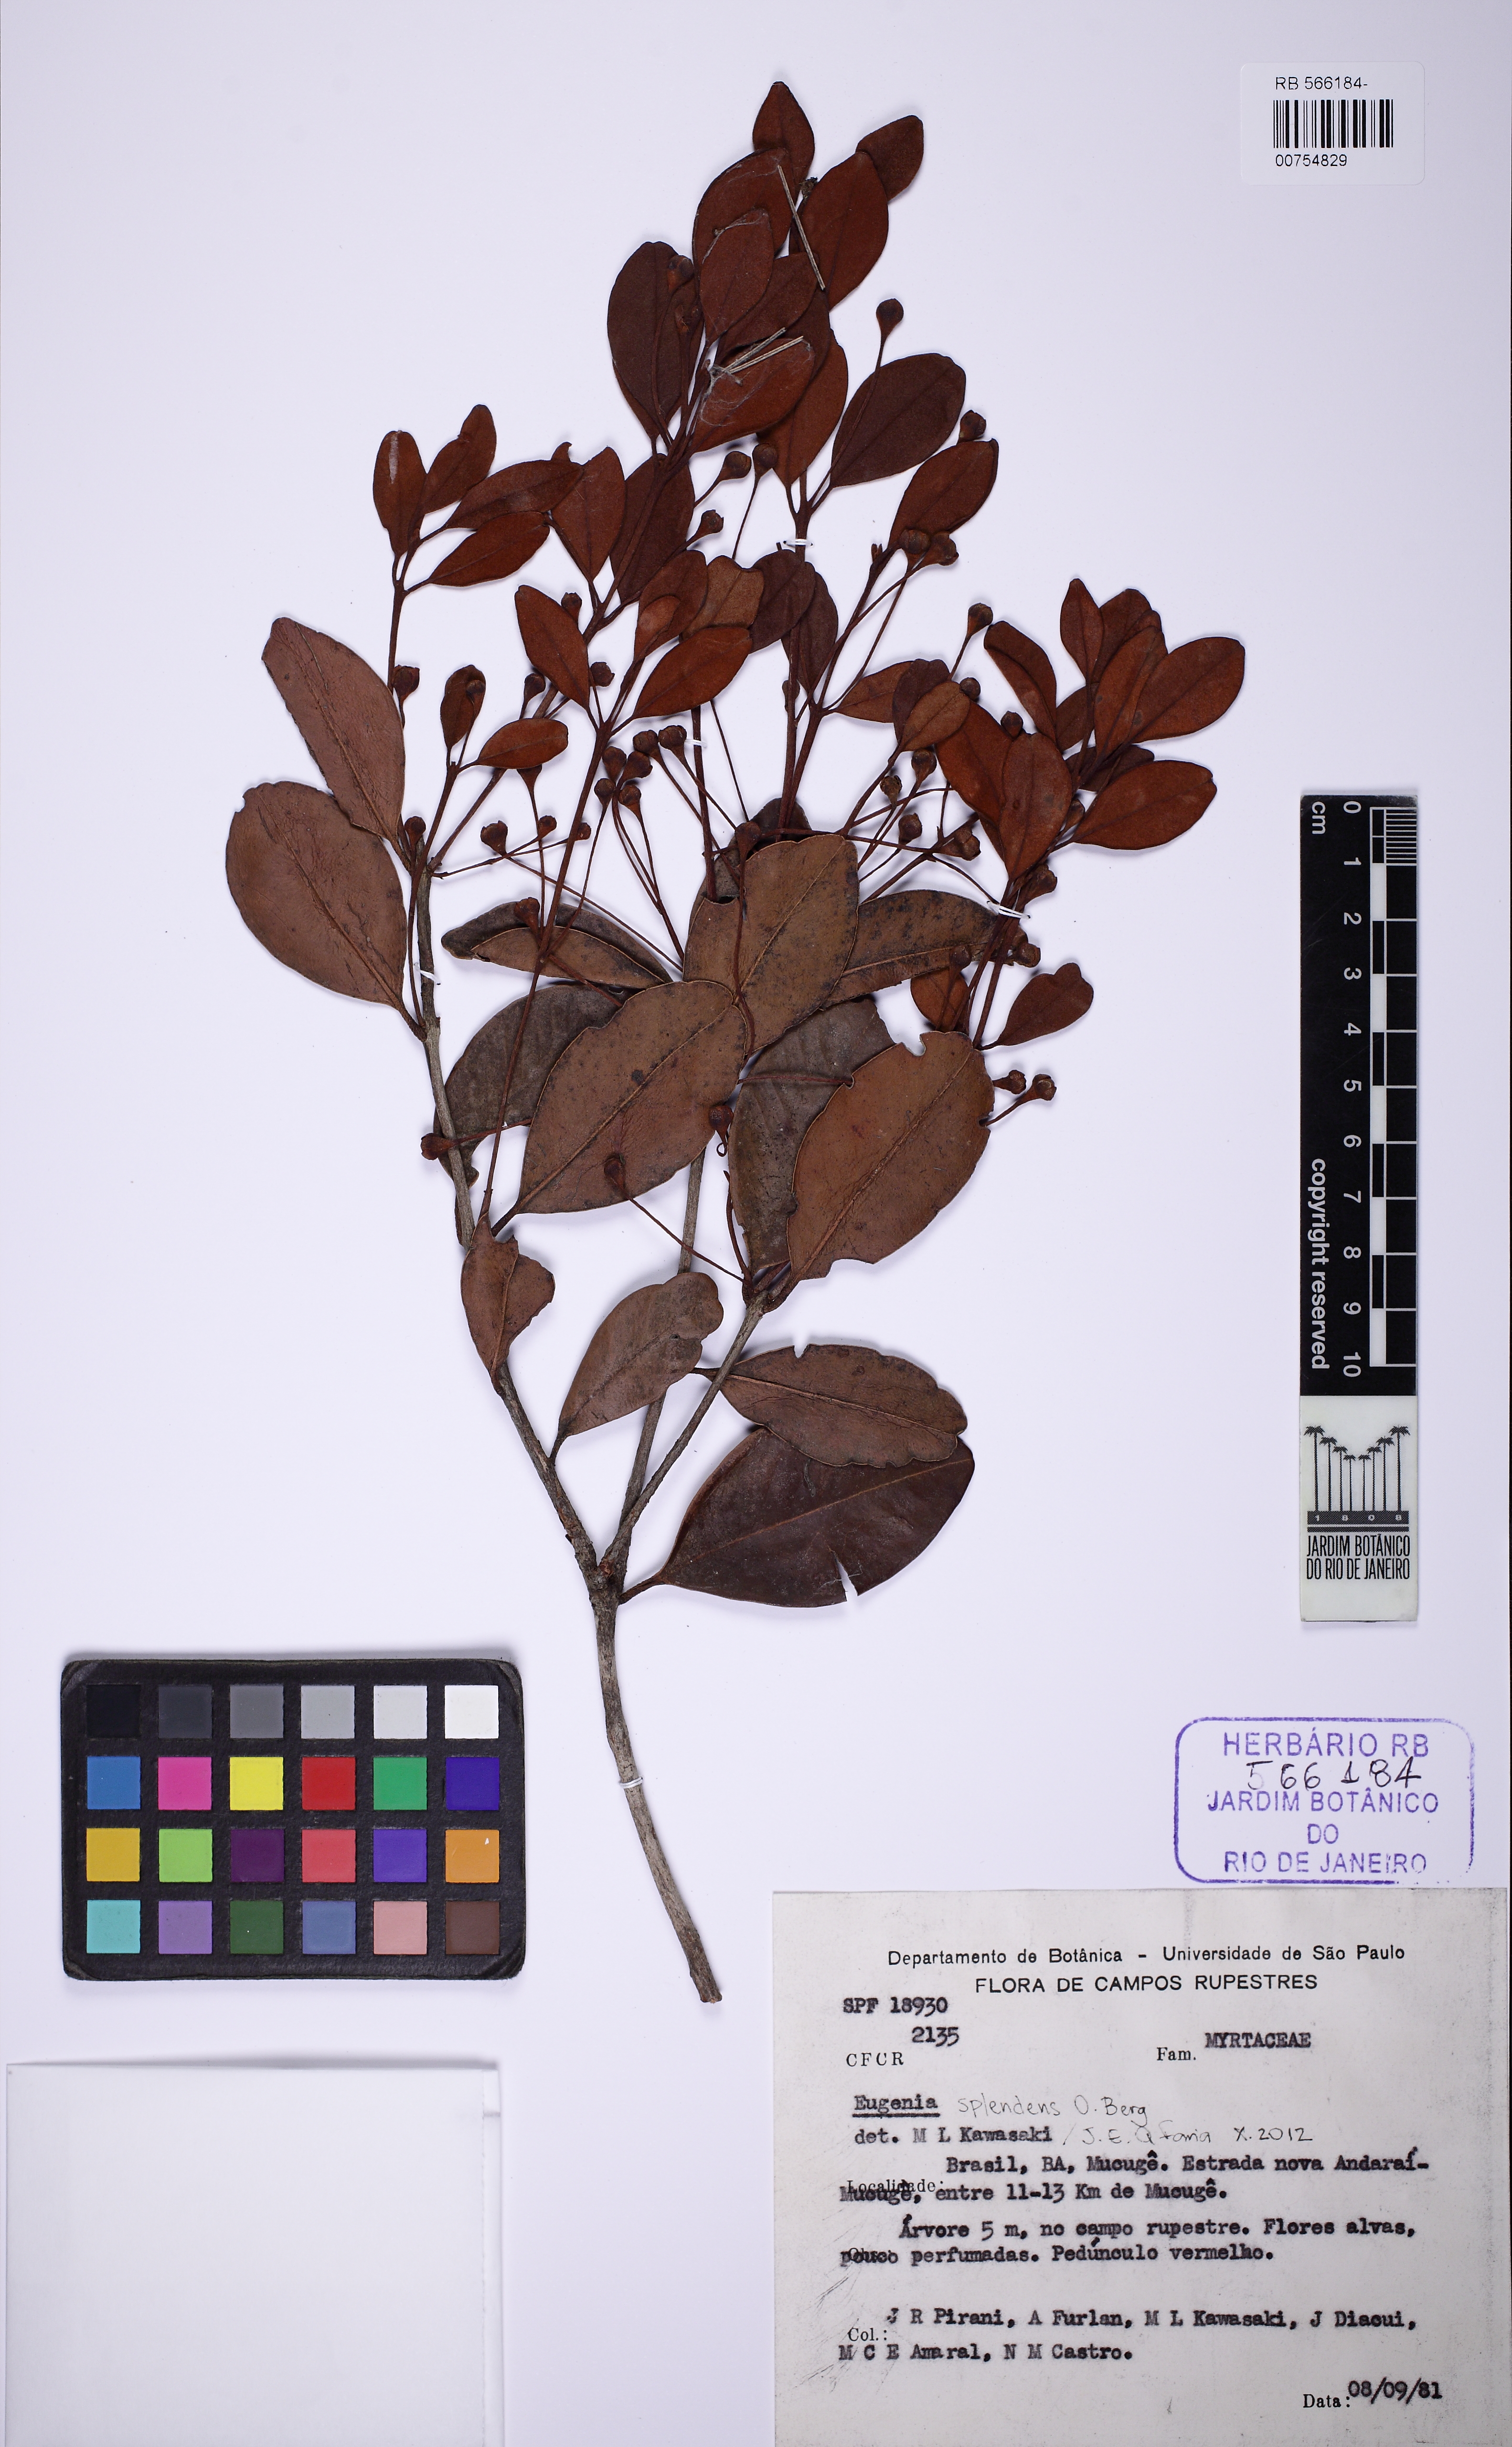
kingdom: Plantae
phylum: Tracheophyta
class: Magnoliopsida
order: Myrtales
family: Myrtaceae
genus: Eugenia
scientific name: Eugenia splendens
